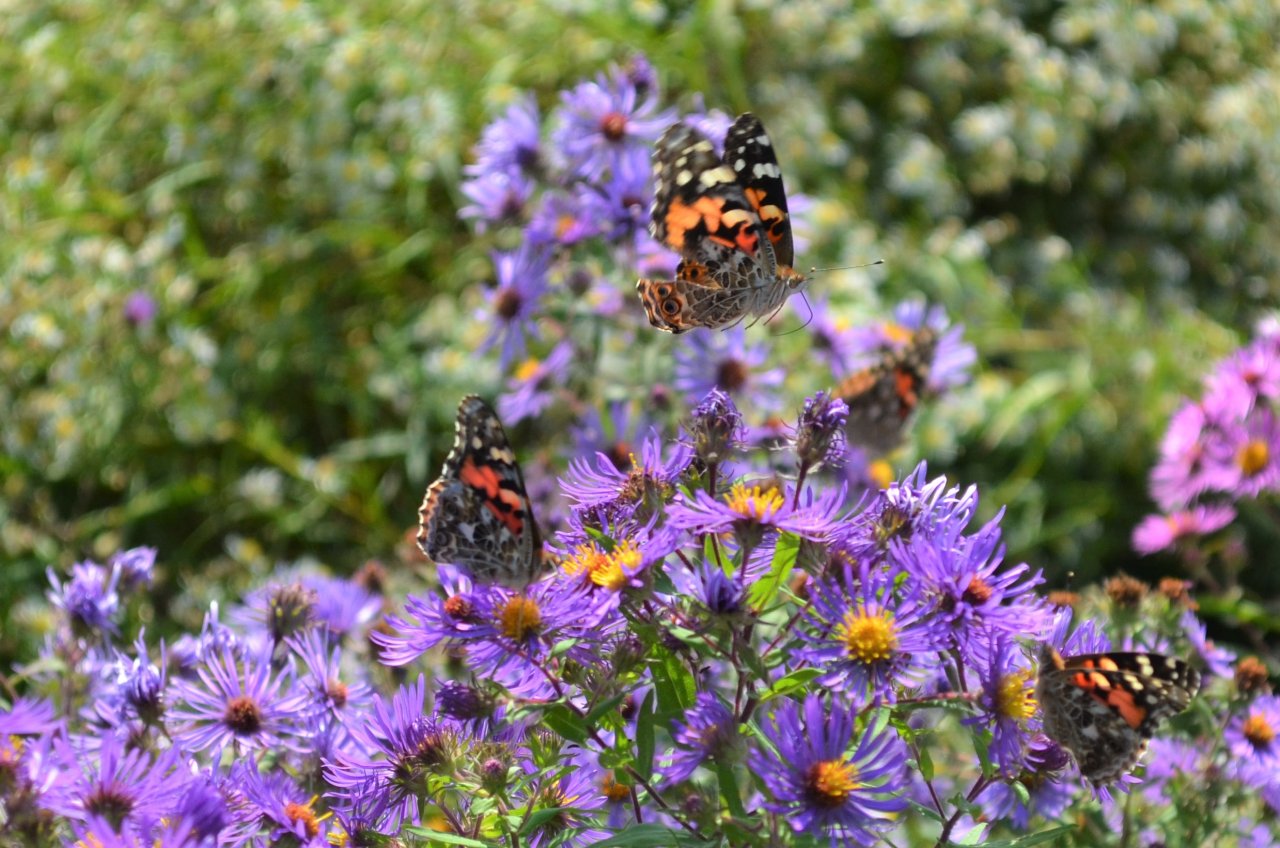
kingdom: Animalia
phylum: Arthropoda
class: Insecta
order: Lepidoptera
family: Nymphalidae
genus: Vanessa
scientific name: Vanessa cardui
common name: Painted Lady
